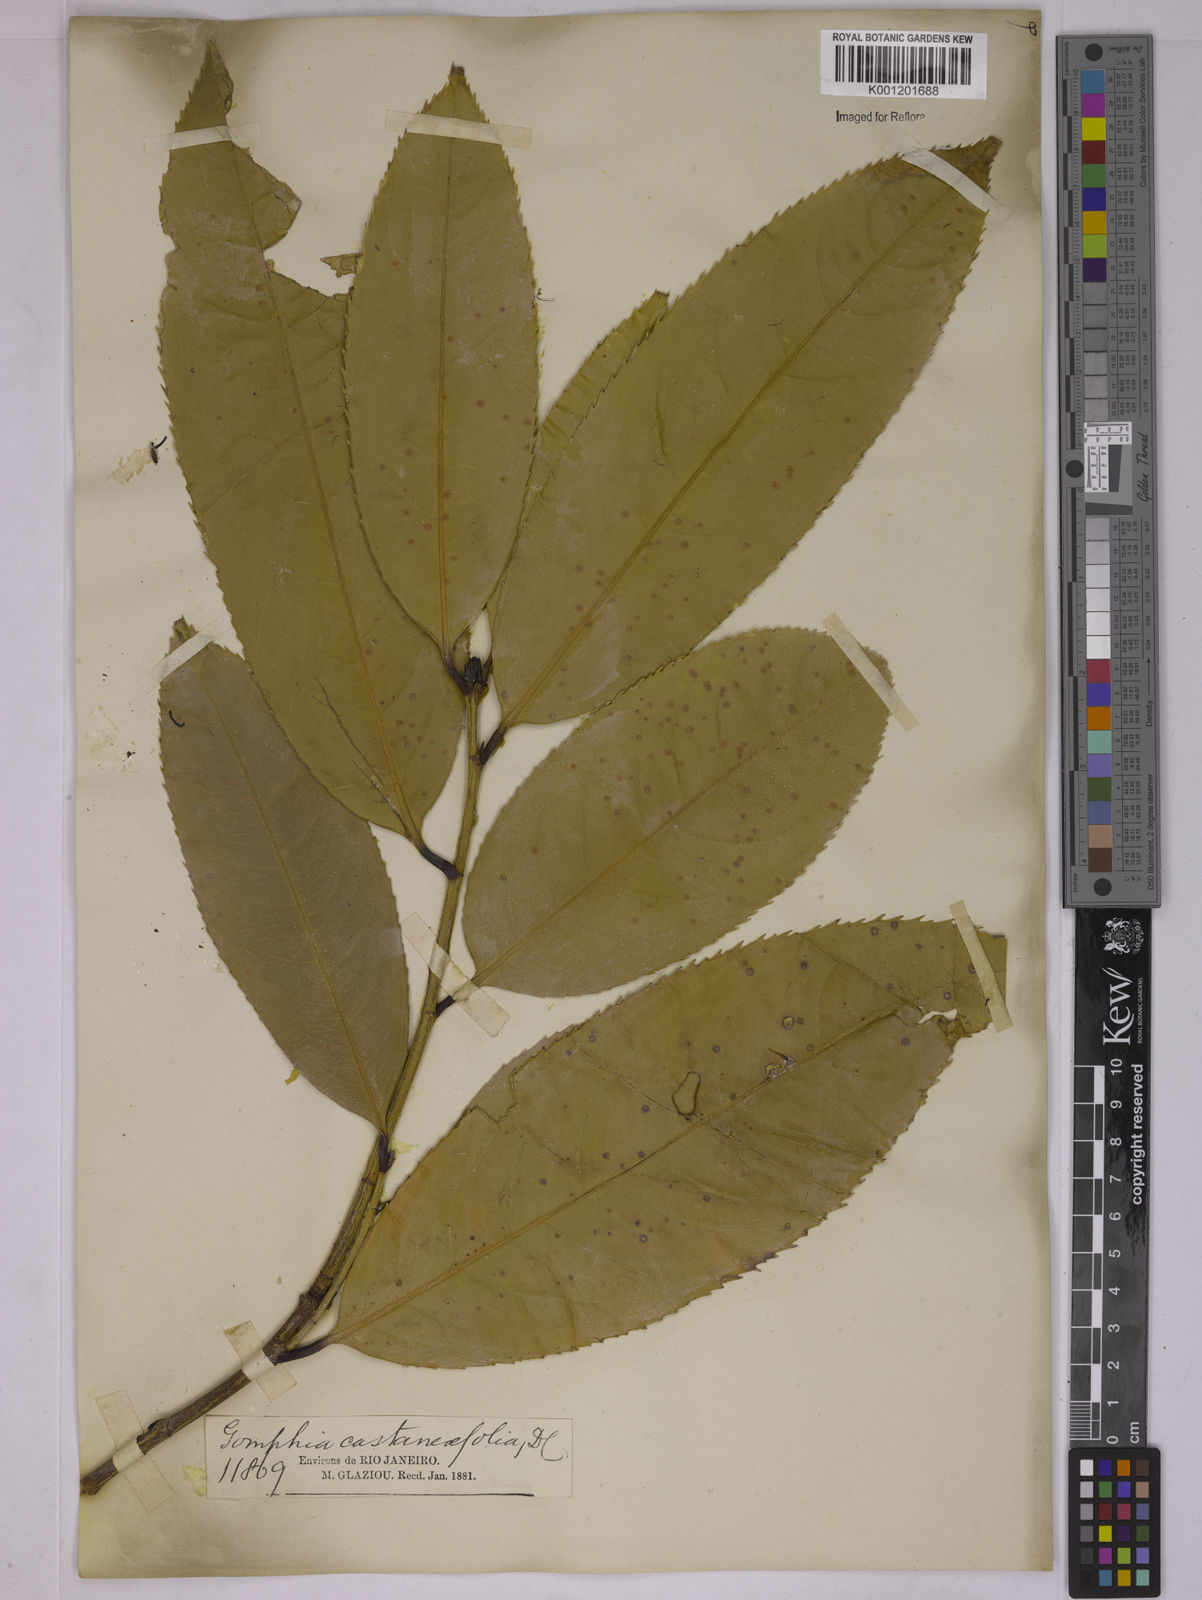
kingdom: Plantae
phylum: Tracheophyta
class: Magnoliopsida
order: Malpighiales
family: Ochnaceae
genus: Ouratea
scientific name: Ouratea castaneifolia
